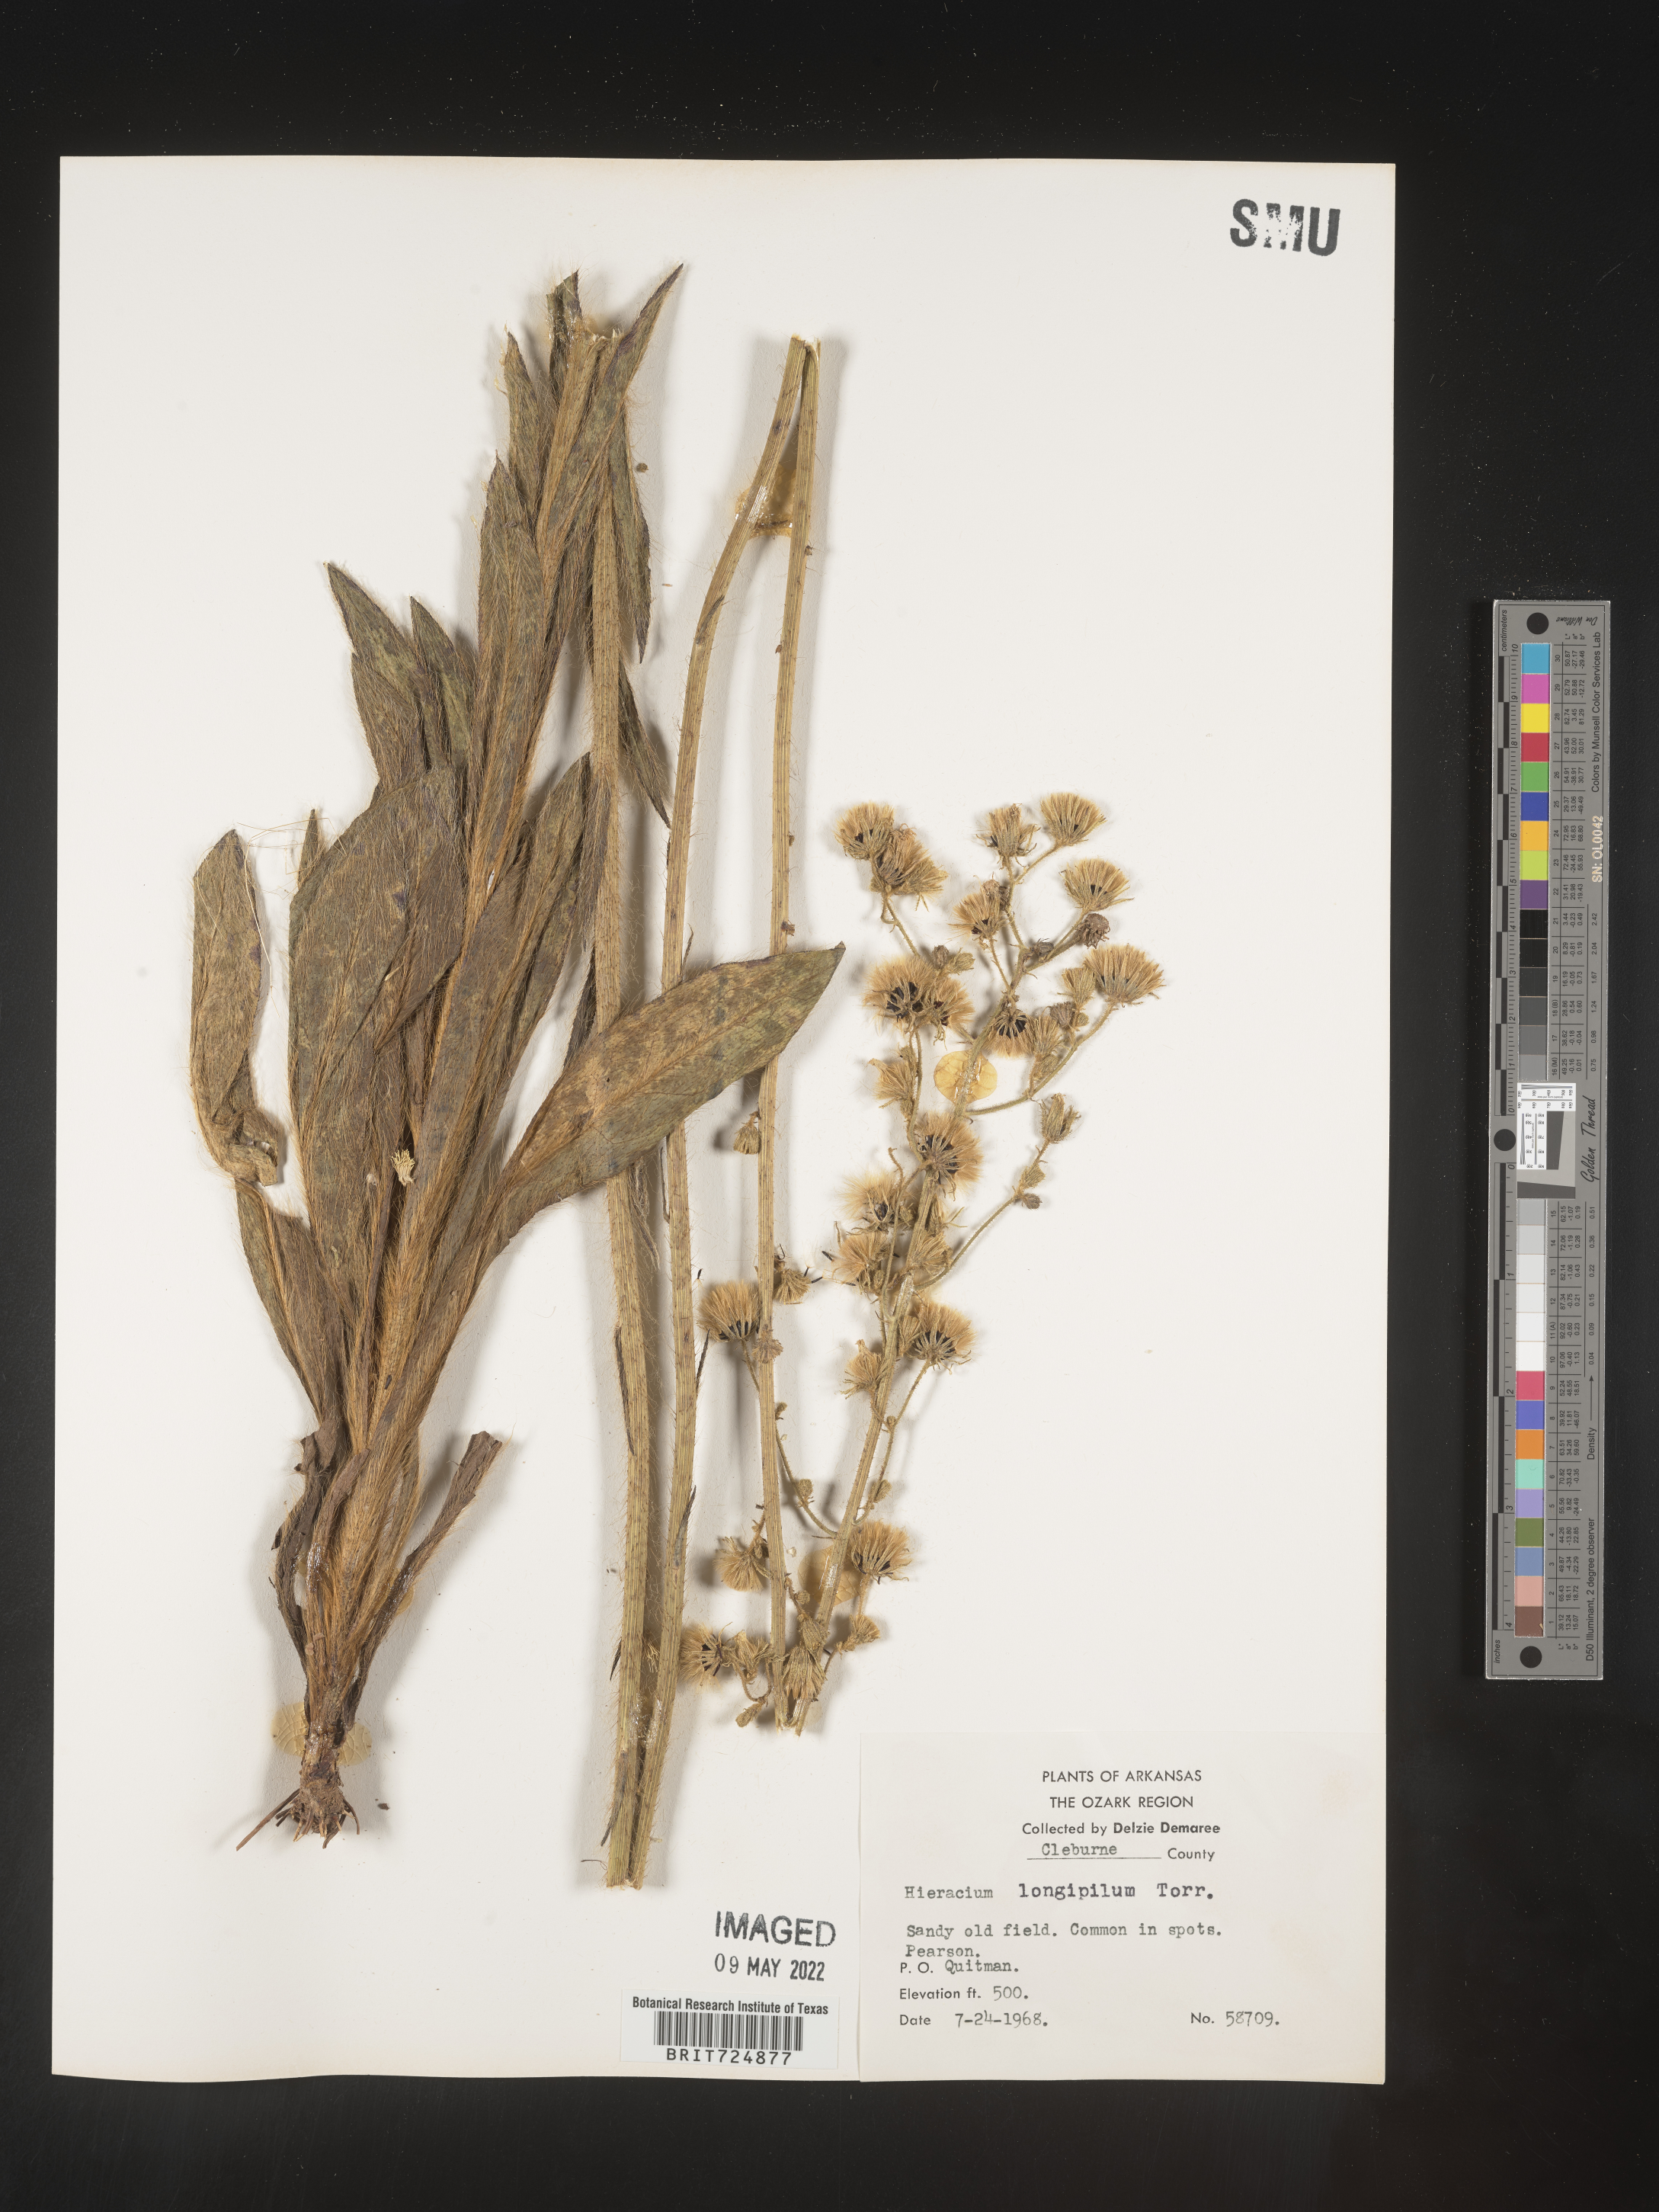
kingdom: Plantae
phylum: Tracheophyta
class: Magnoliopsida
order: Asterales
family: Asteraceae
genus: Hieracium
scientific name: Hieracium longipilum
